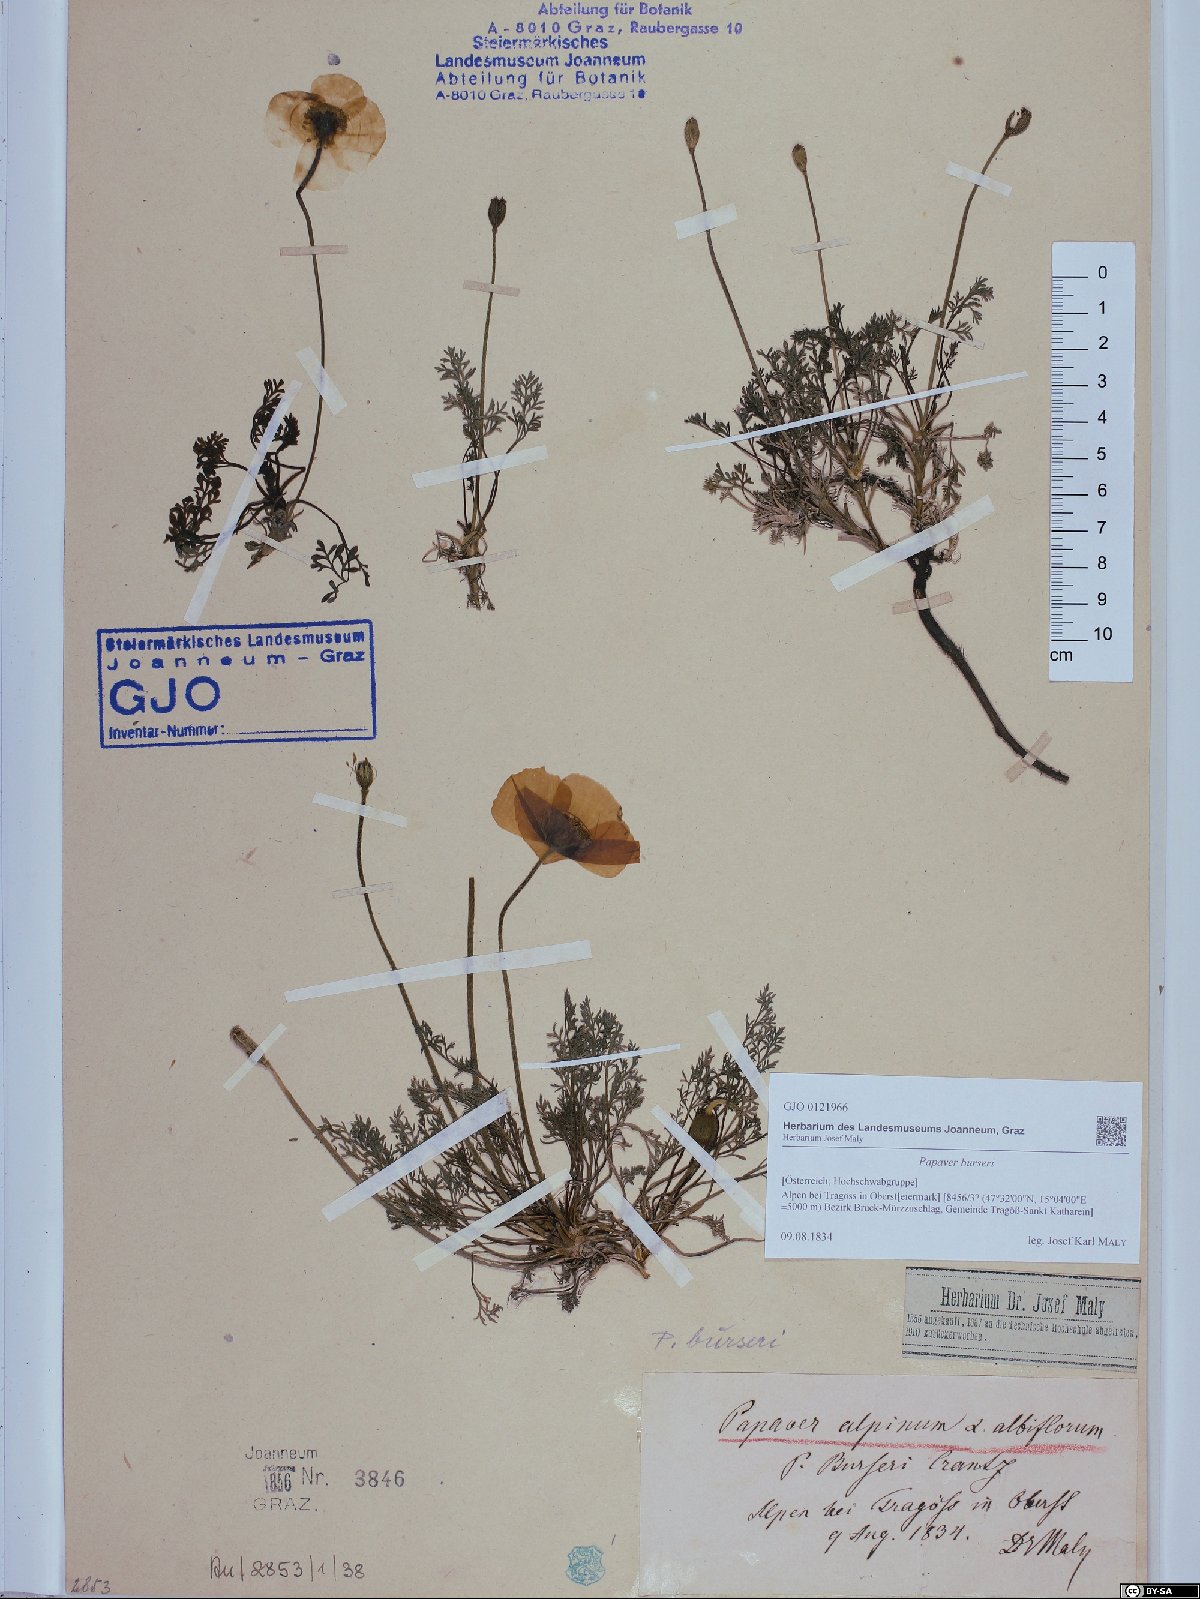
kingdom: Plantae
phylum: Tracheophyta
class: Magnoliopsida
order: Ranunculales
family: Papaveraceae
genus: Papaver
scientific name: Papaver alpinum
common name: Austrian poppy
